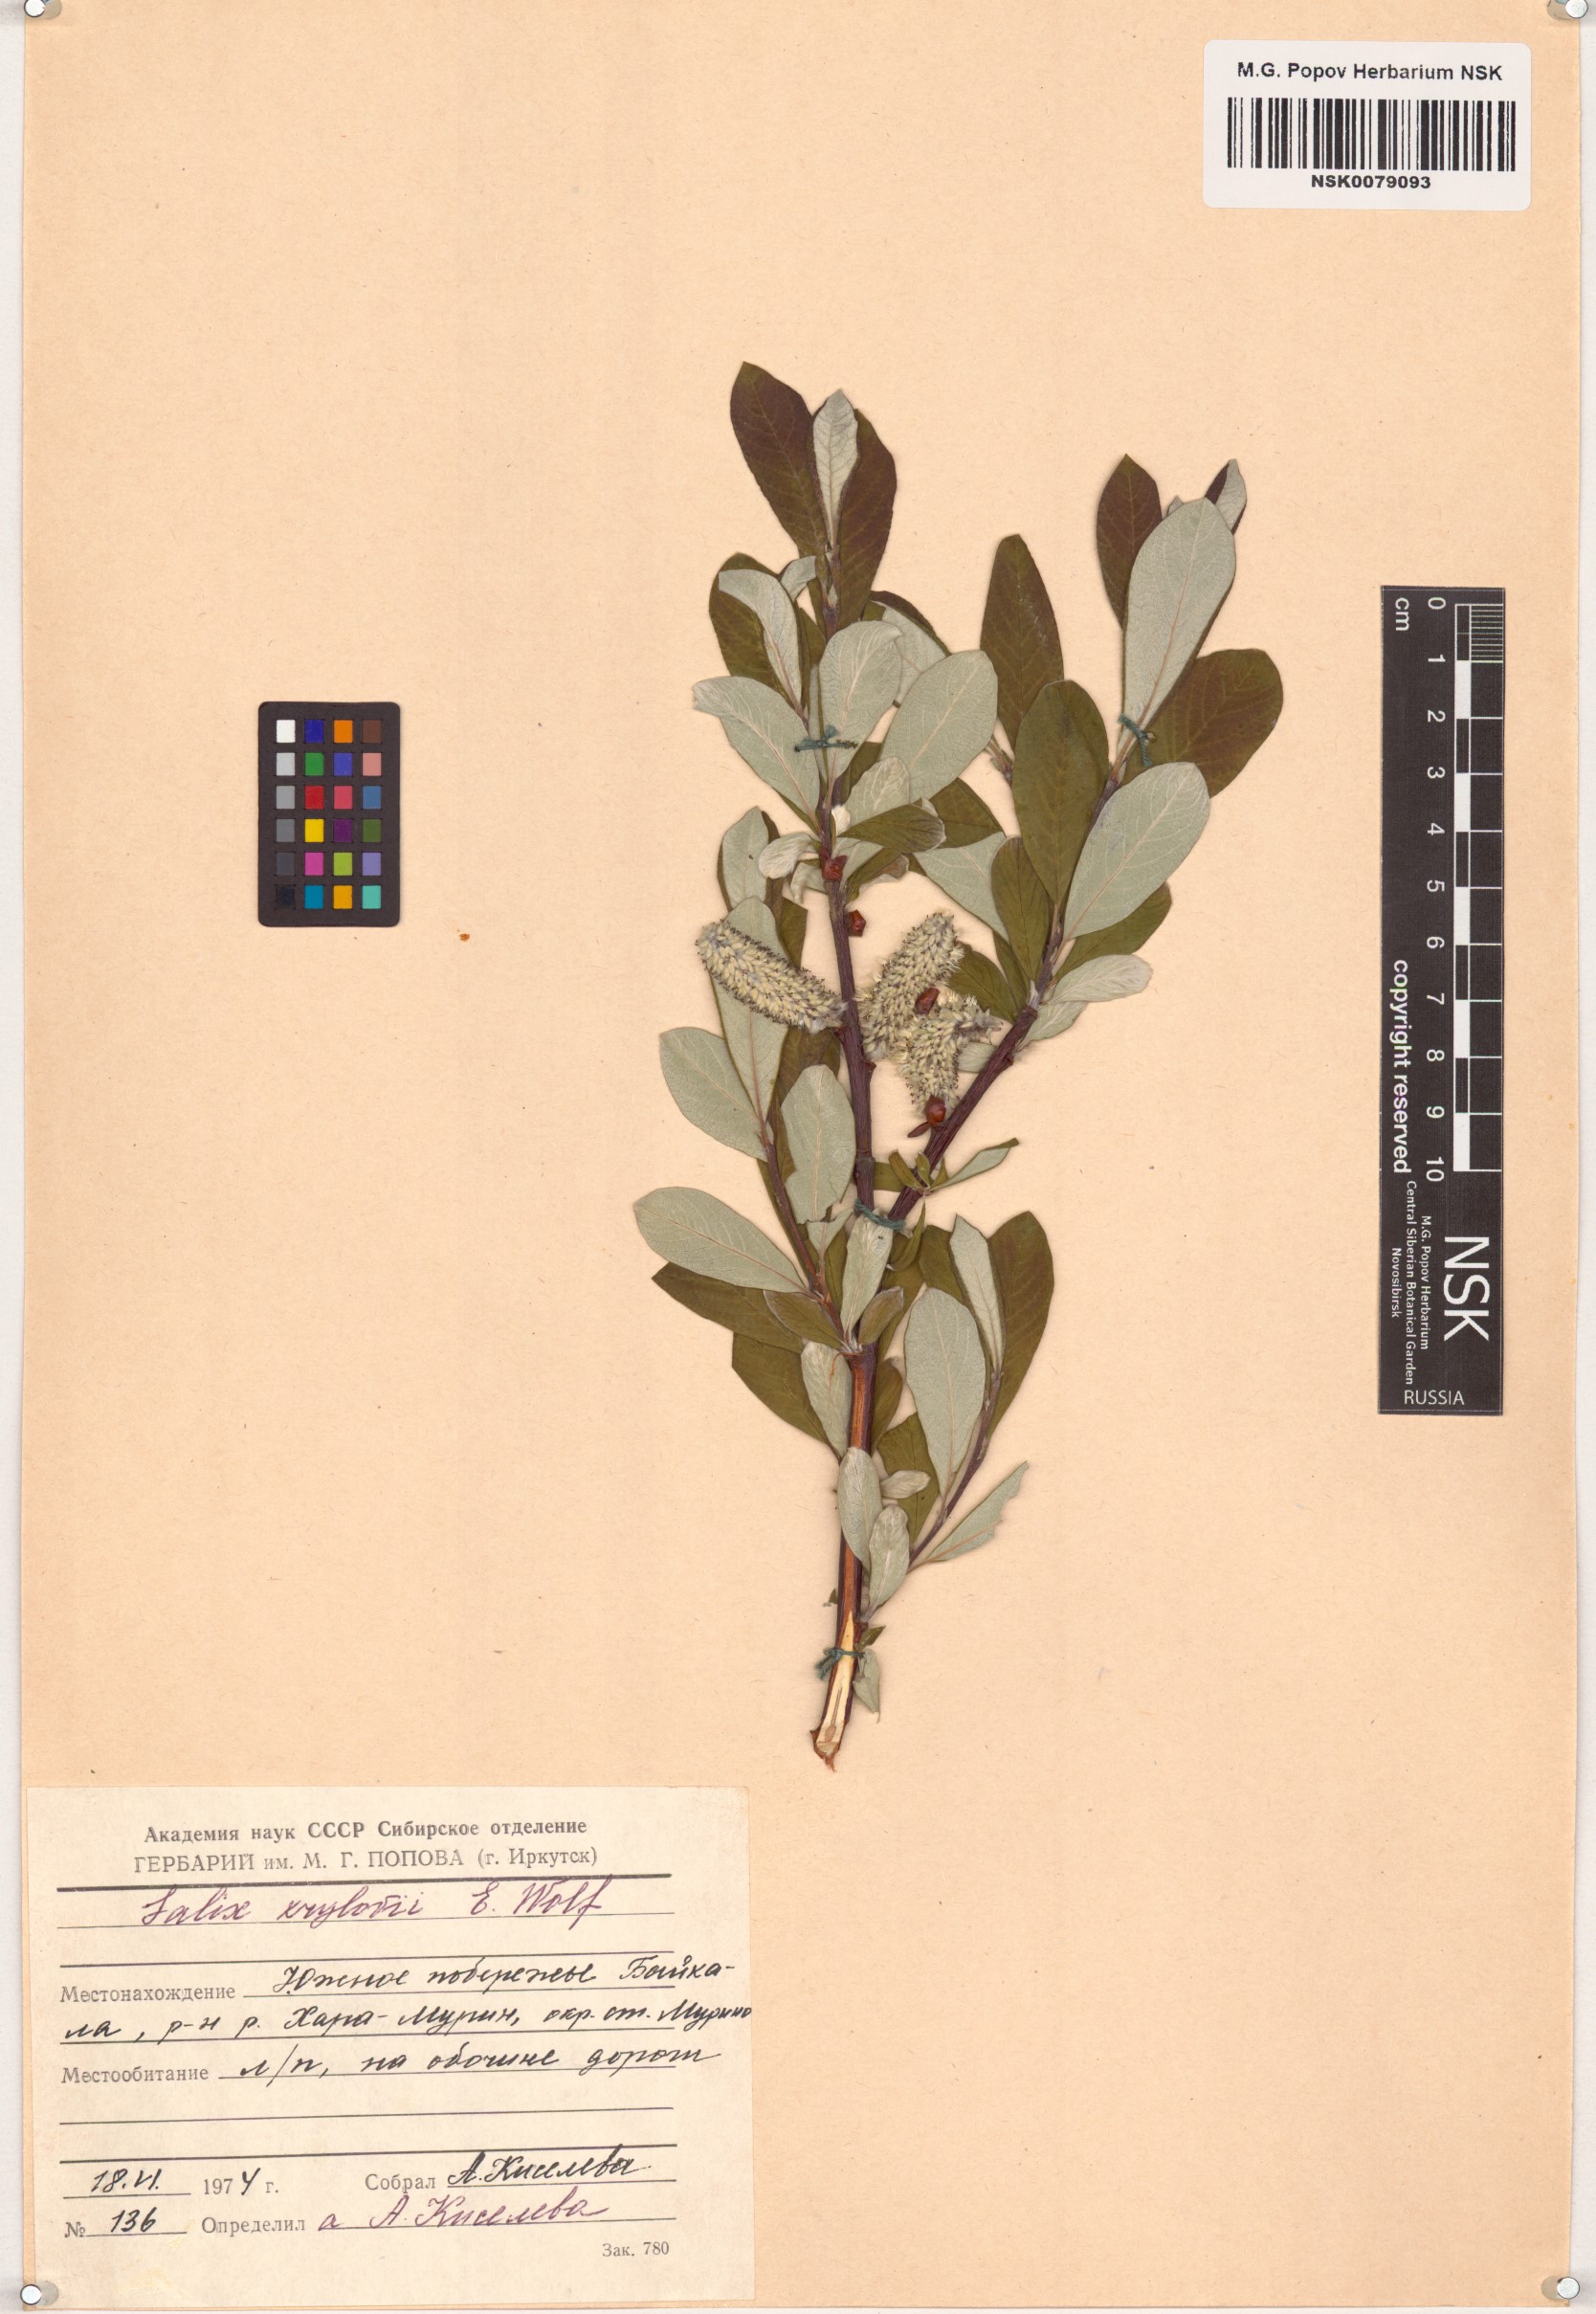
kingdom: Plantae
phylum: Tracheophyta
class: Magnoliopsida
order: Malpighiales
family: Salicaceae
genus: Salix
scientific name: Salix krylovii
